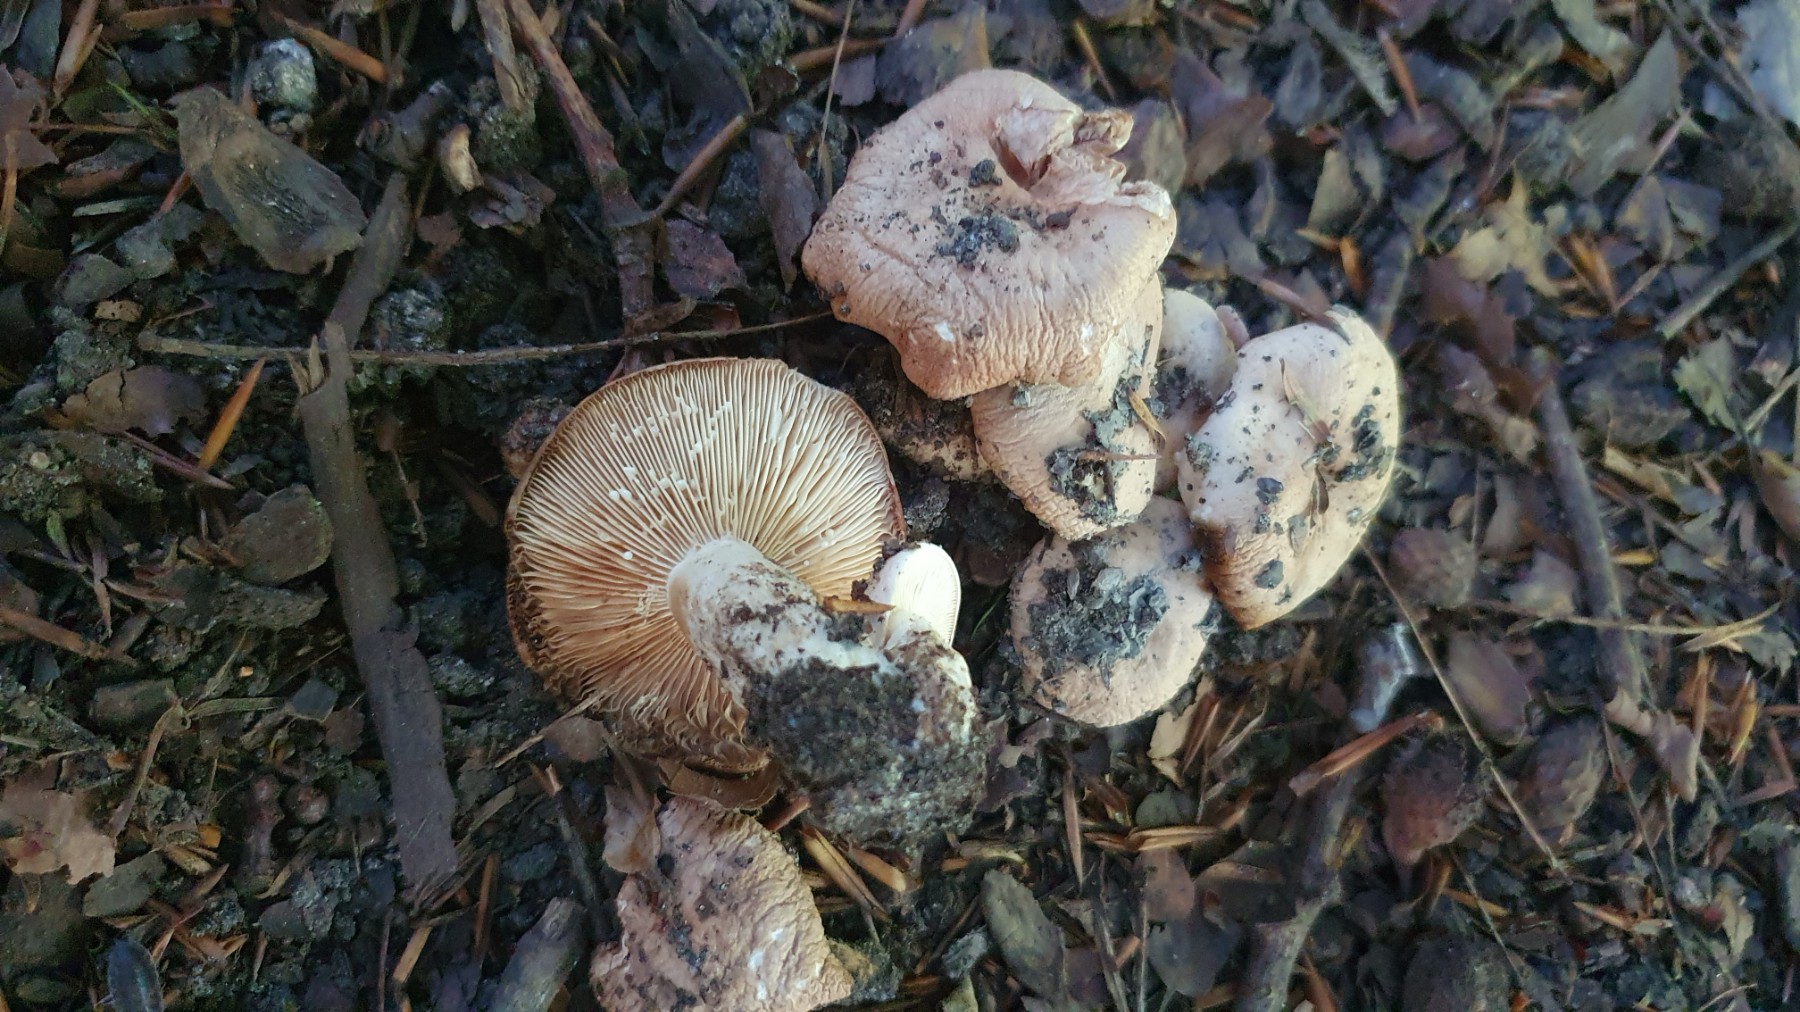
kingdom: Fungi
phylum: Basidiomycota
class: Agaricomycetes
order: Russulales
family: Russulaceae
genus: Lactarius
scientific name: Lactarius pallidus
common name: bleg mælkehat
